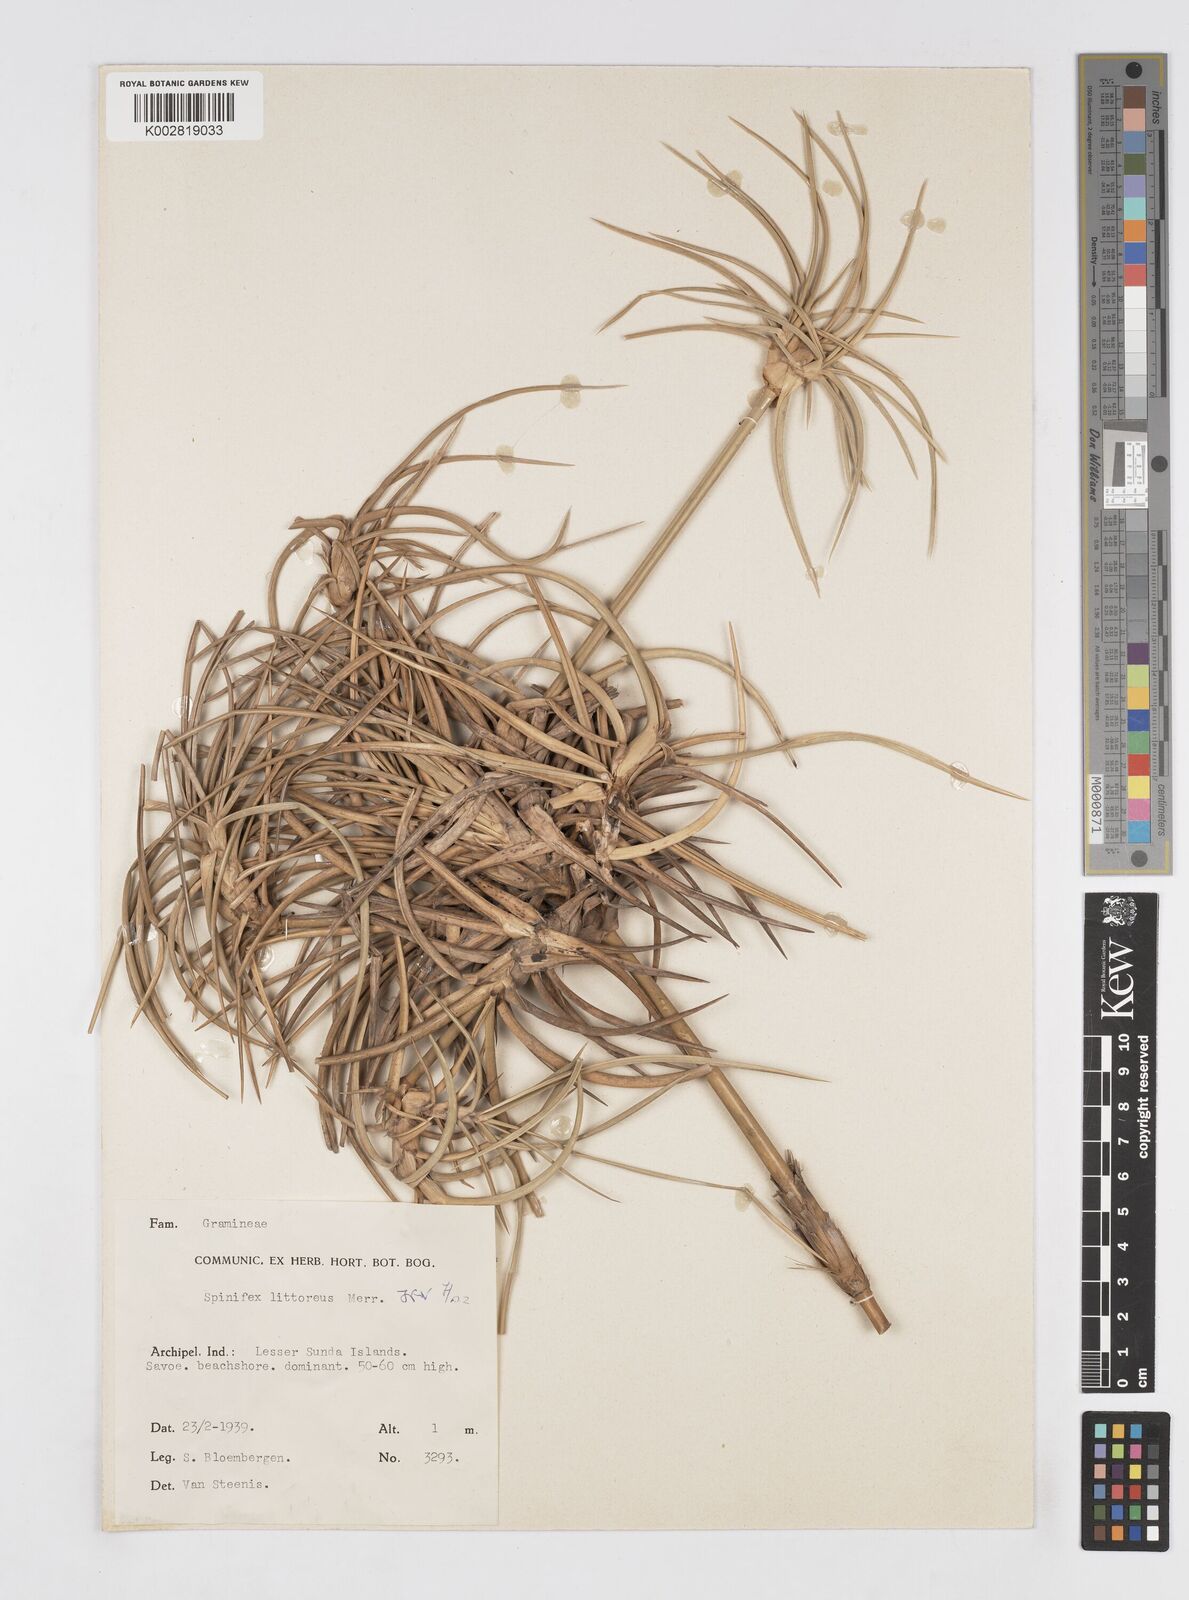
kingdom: Plantae
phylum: Tracheophyta
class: Liliopsida
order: Poales
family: Poaceae
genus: Spinifex
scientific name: Spinifex littoreus
